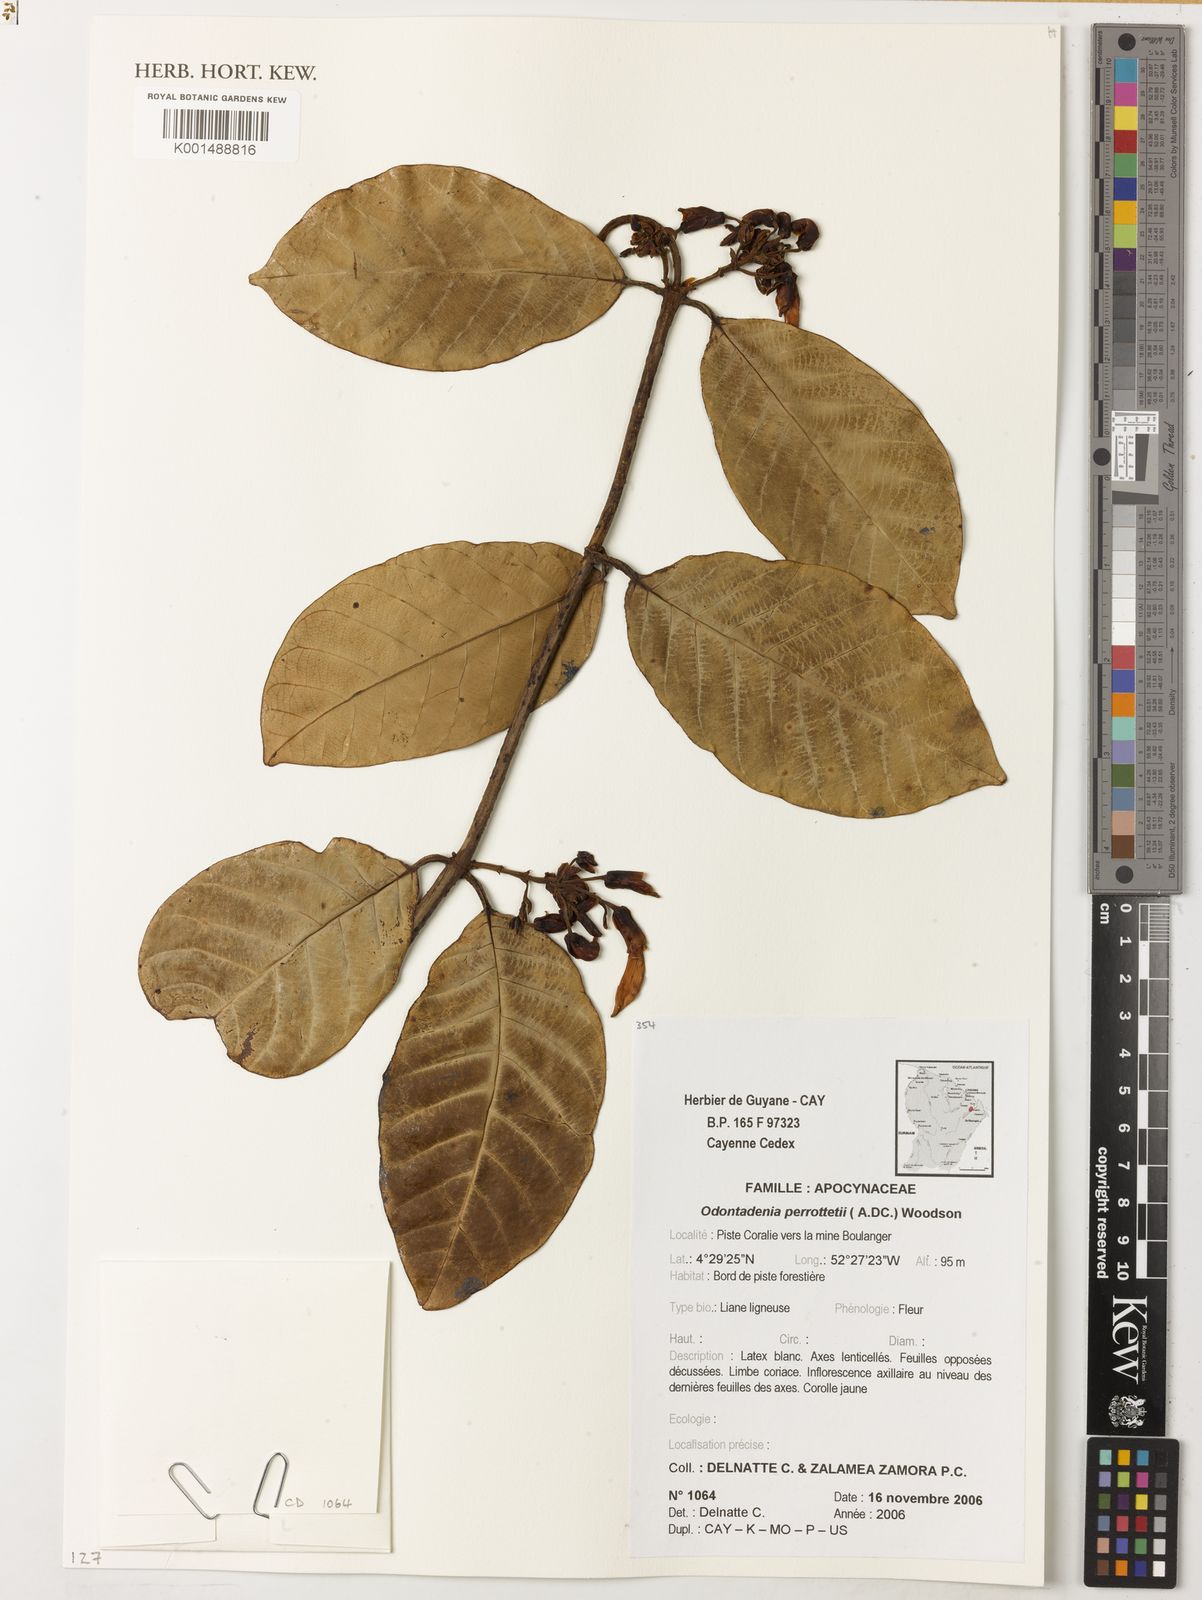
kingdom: Plantae
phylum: Tracheophyta
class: Magnoliopsida
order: Gentianales
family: Apocynaceae
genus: Odontadenia
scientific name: Odontadenia perrottetii
